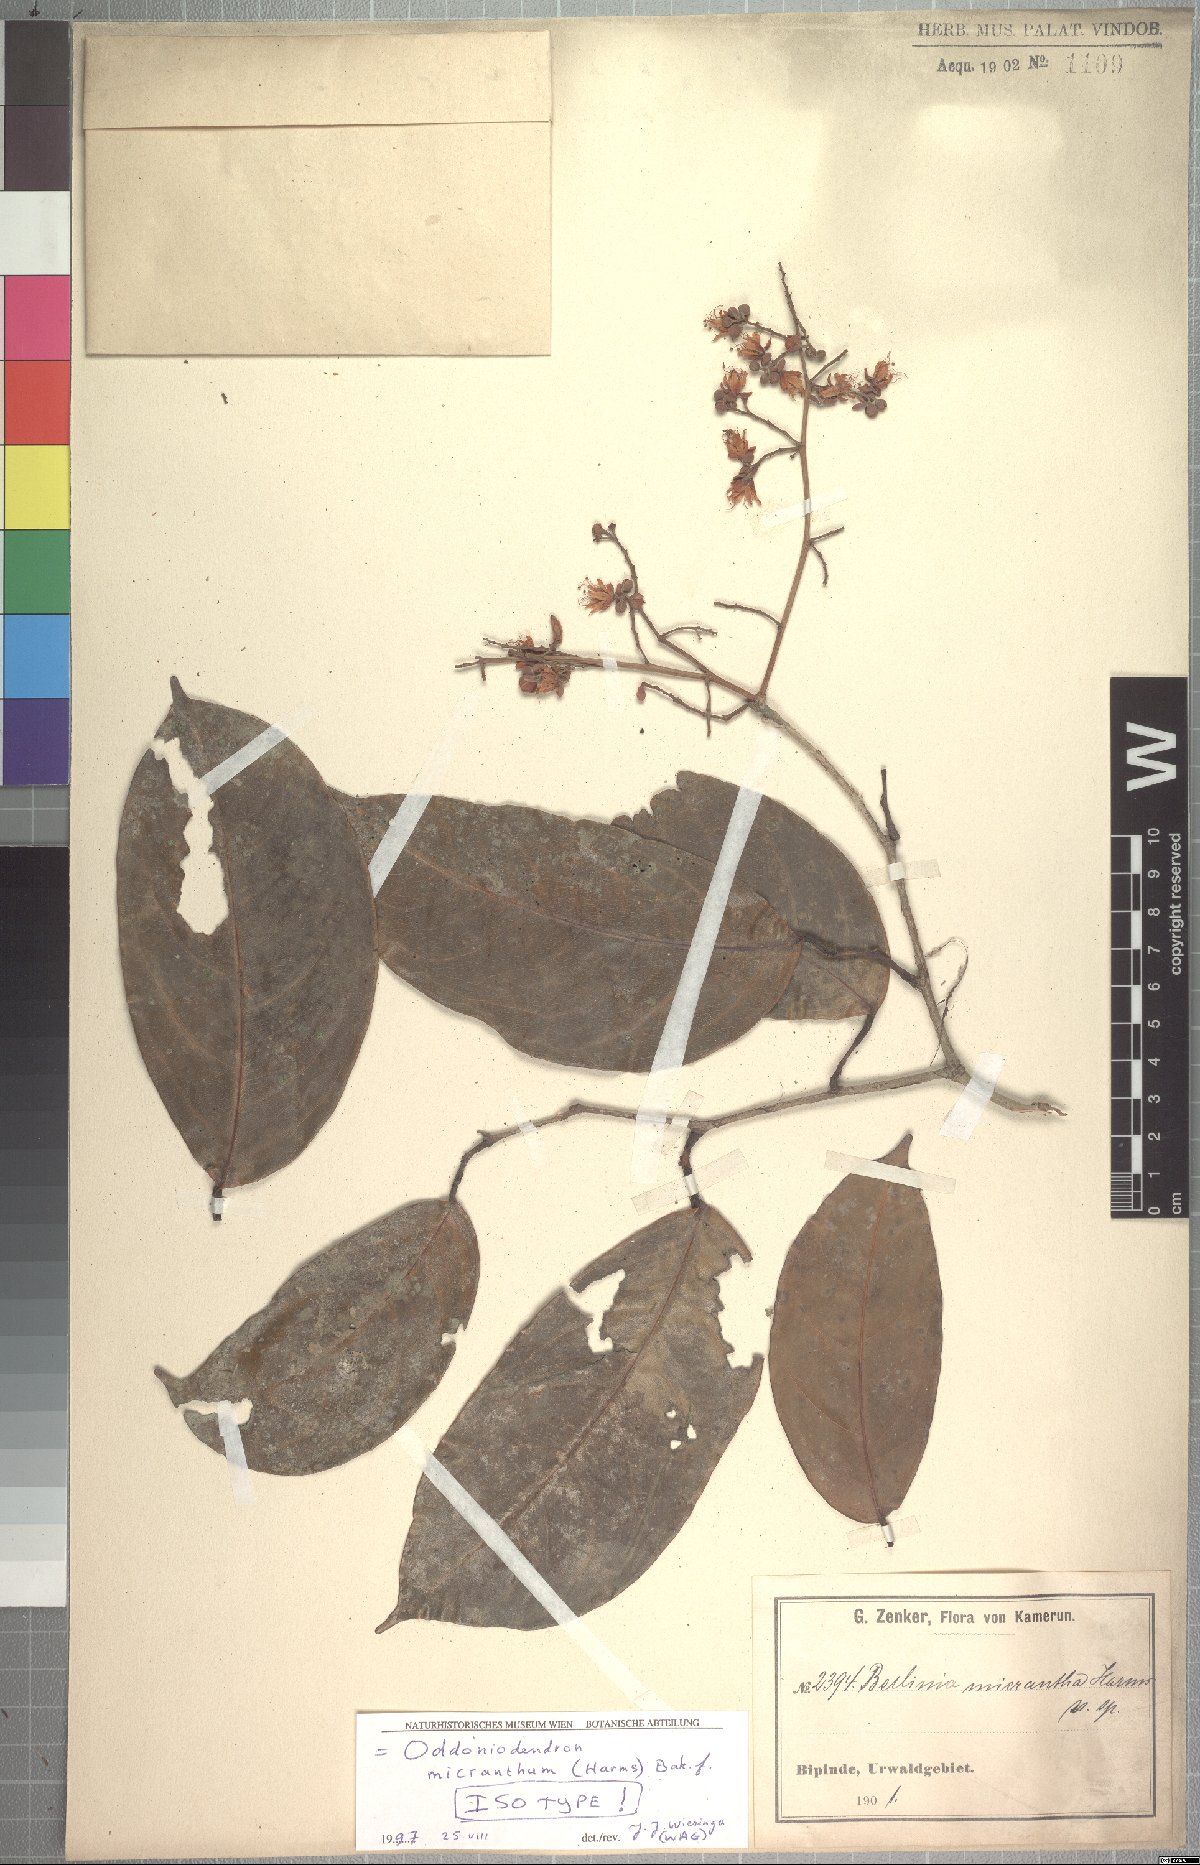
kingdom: Plantae
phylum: Tracheophyta
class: Magnoliopsida
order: Fabales
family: Fabaceae
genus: Oddoniodendron
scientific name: Oddoniodendron micranthum
